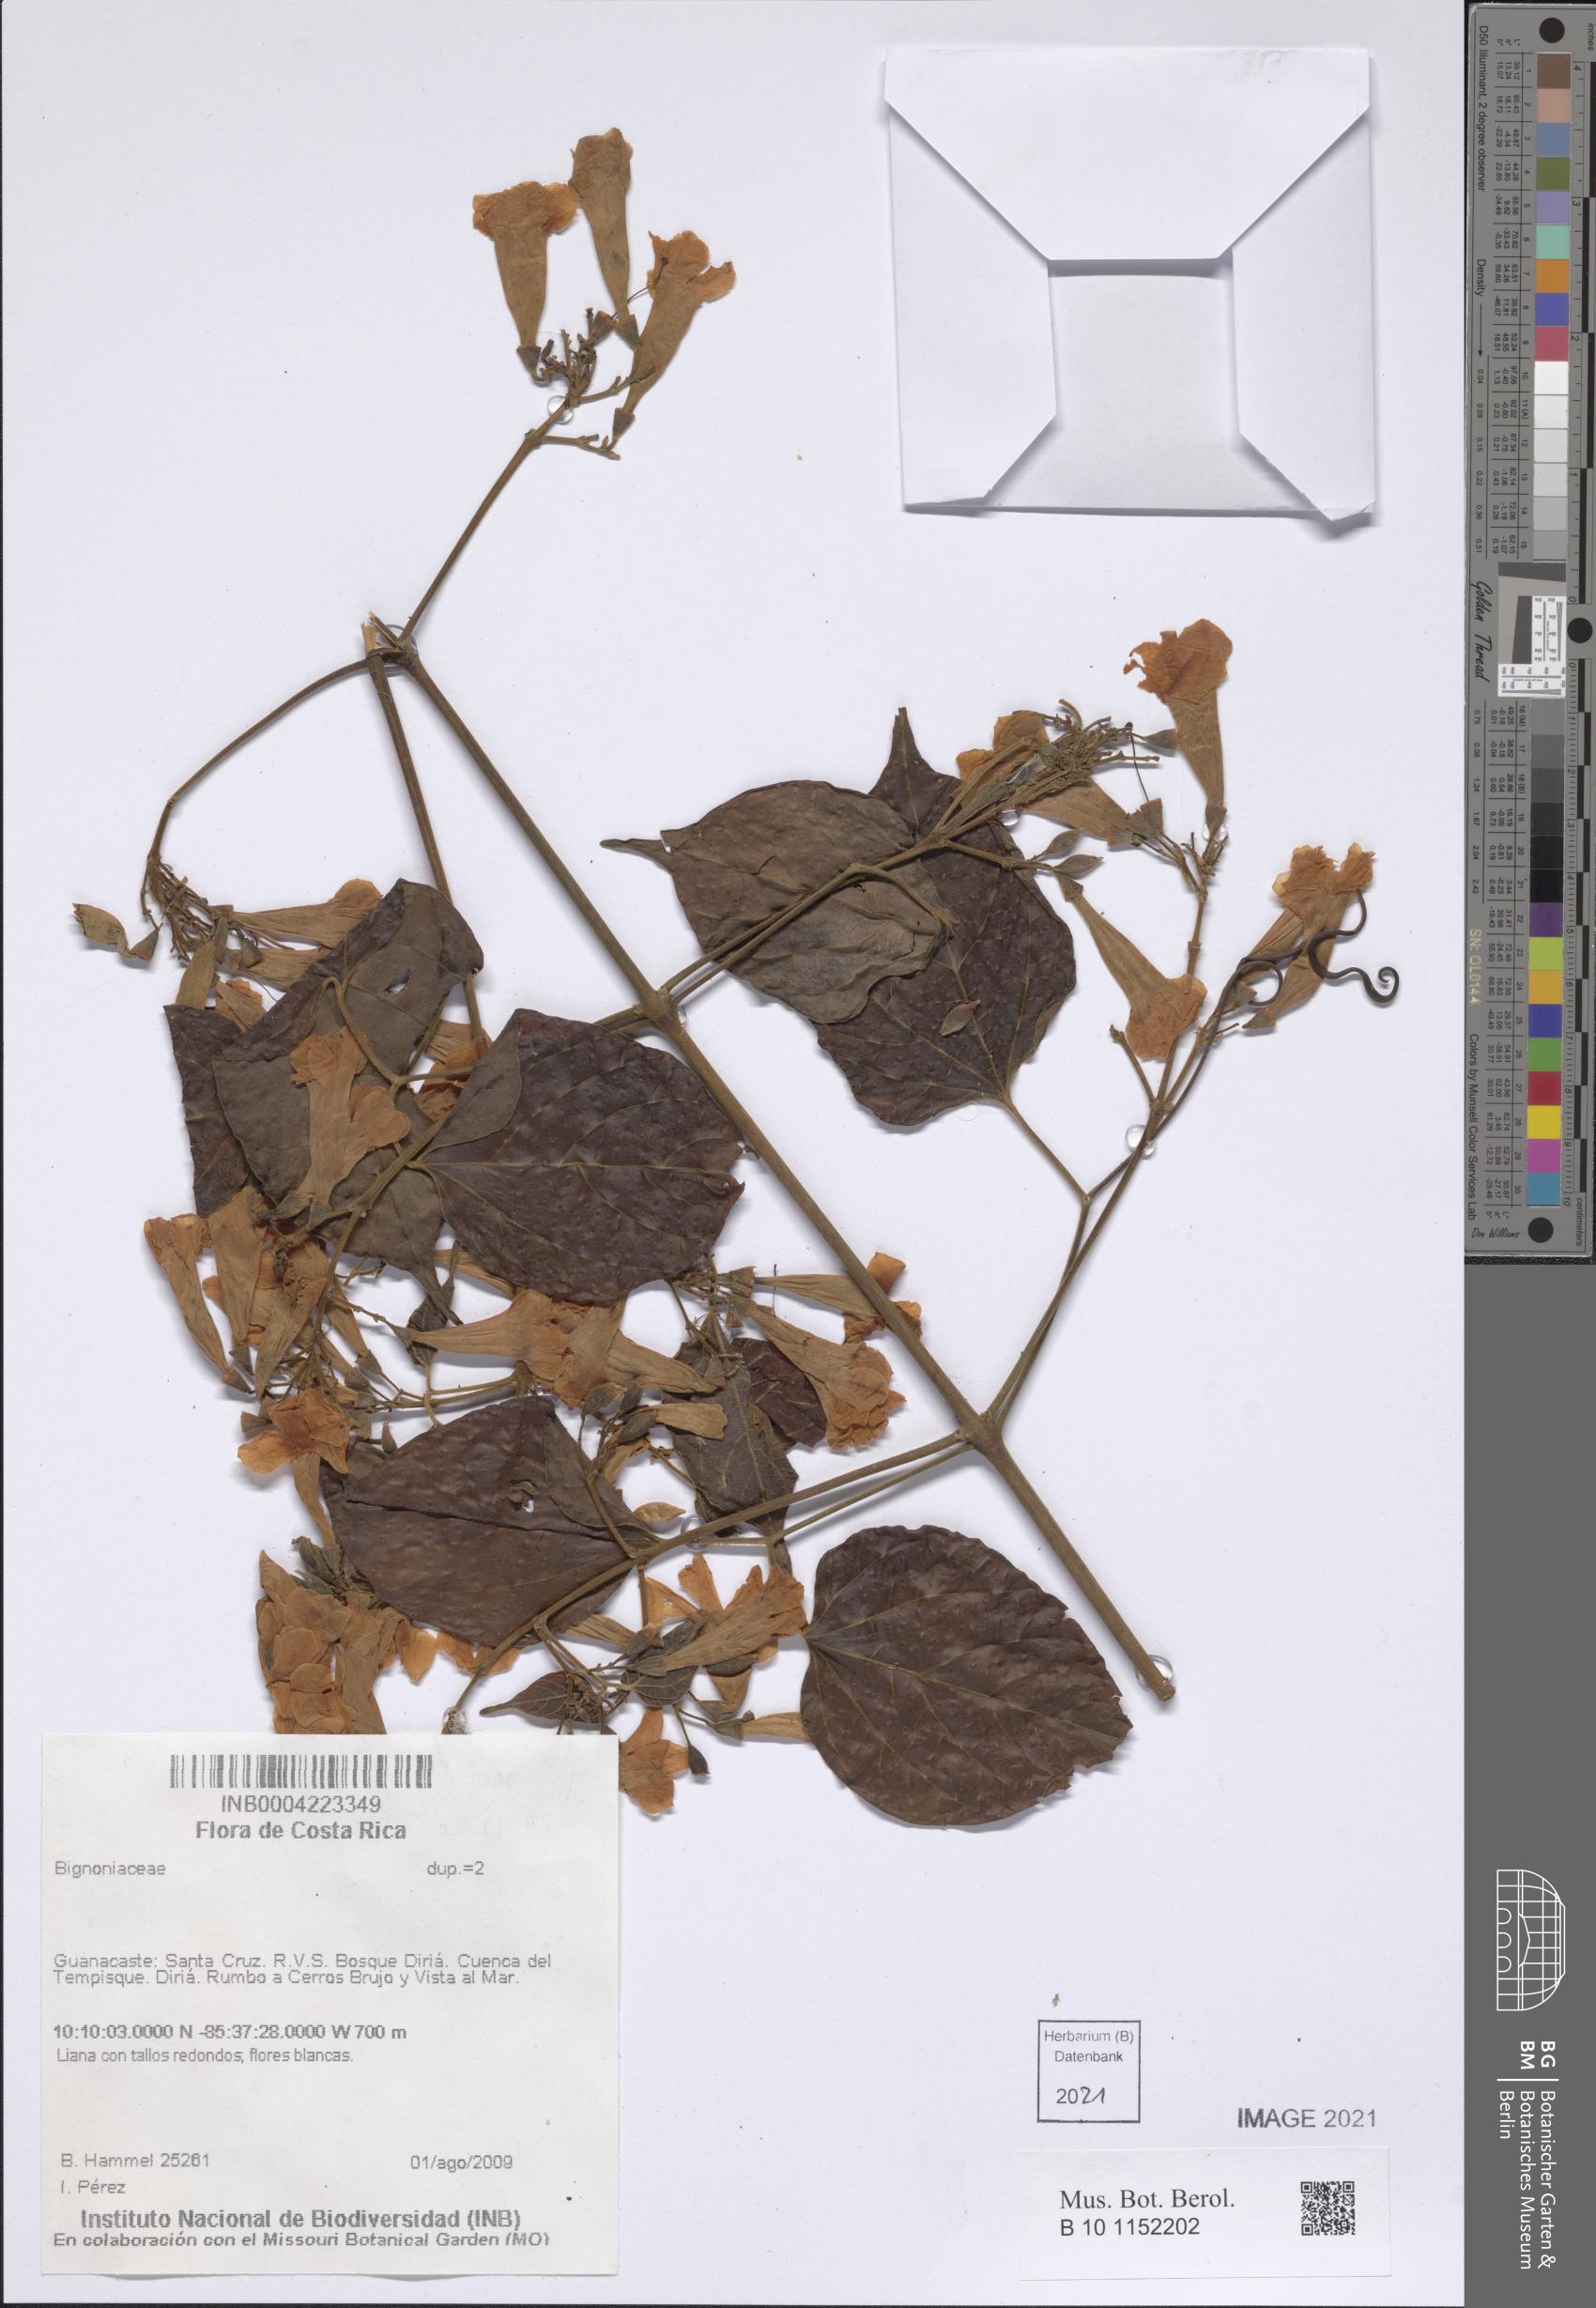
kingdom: Plantae
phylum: Tracheophyta
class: Magnoliopsida
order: Lamiales
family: Bignoniaceae
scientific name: Bignoniaceae
